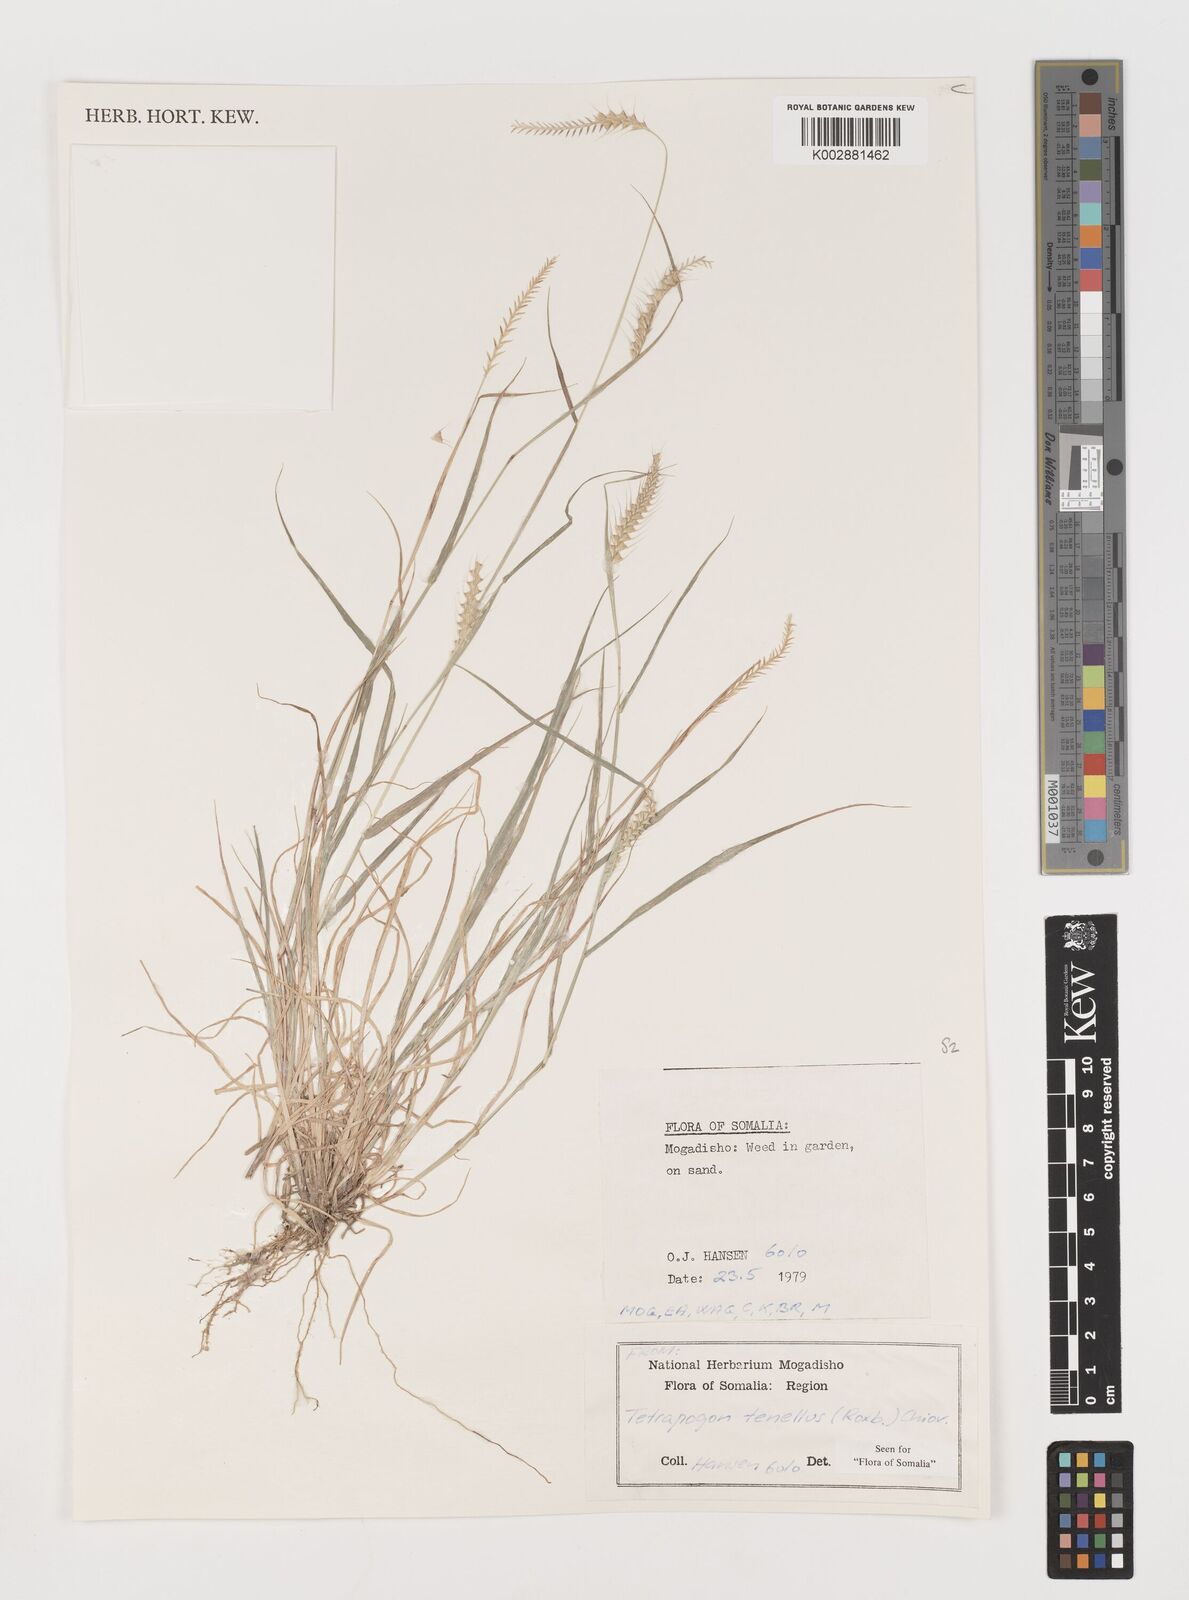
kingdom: Plantae
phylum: Tracheophyta
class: Liliopsida
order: Poales
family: Poaceae
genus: Tetrapogon
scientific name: Tetrapogon tenellus
